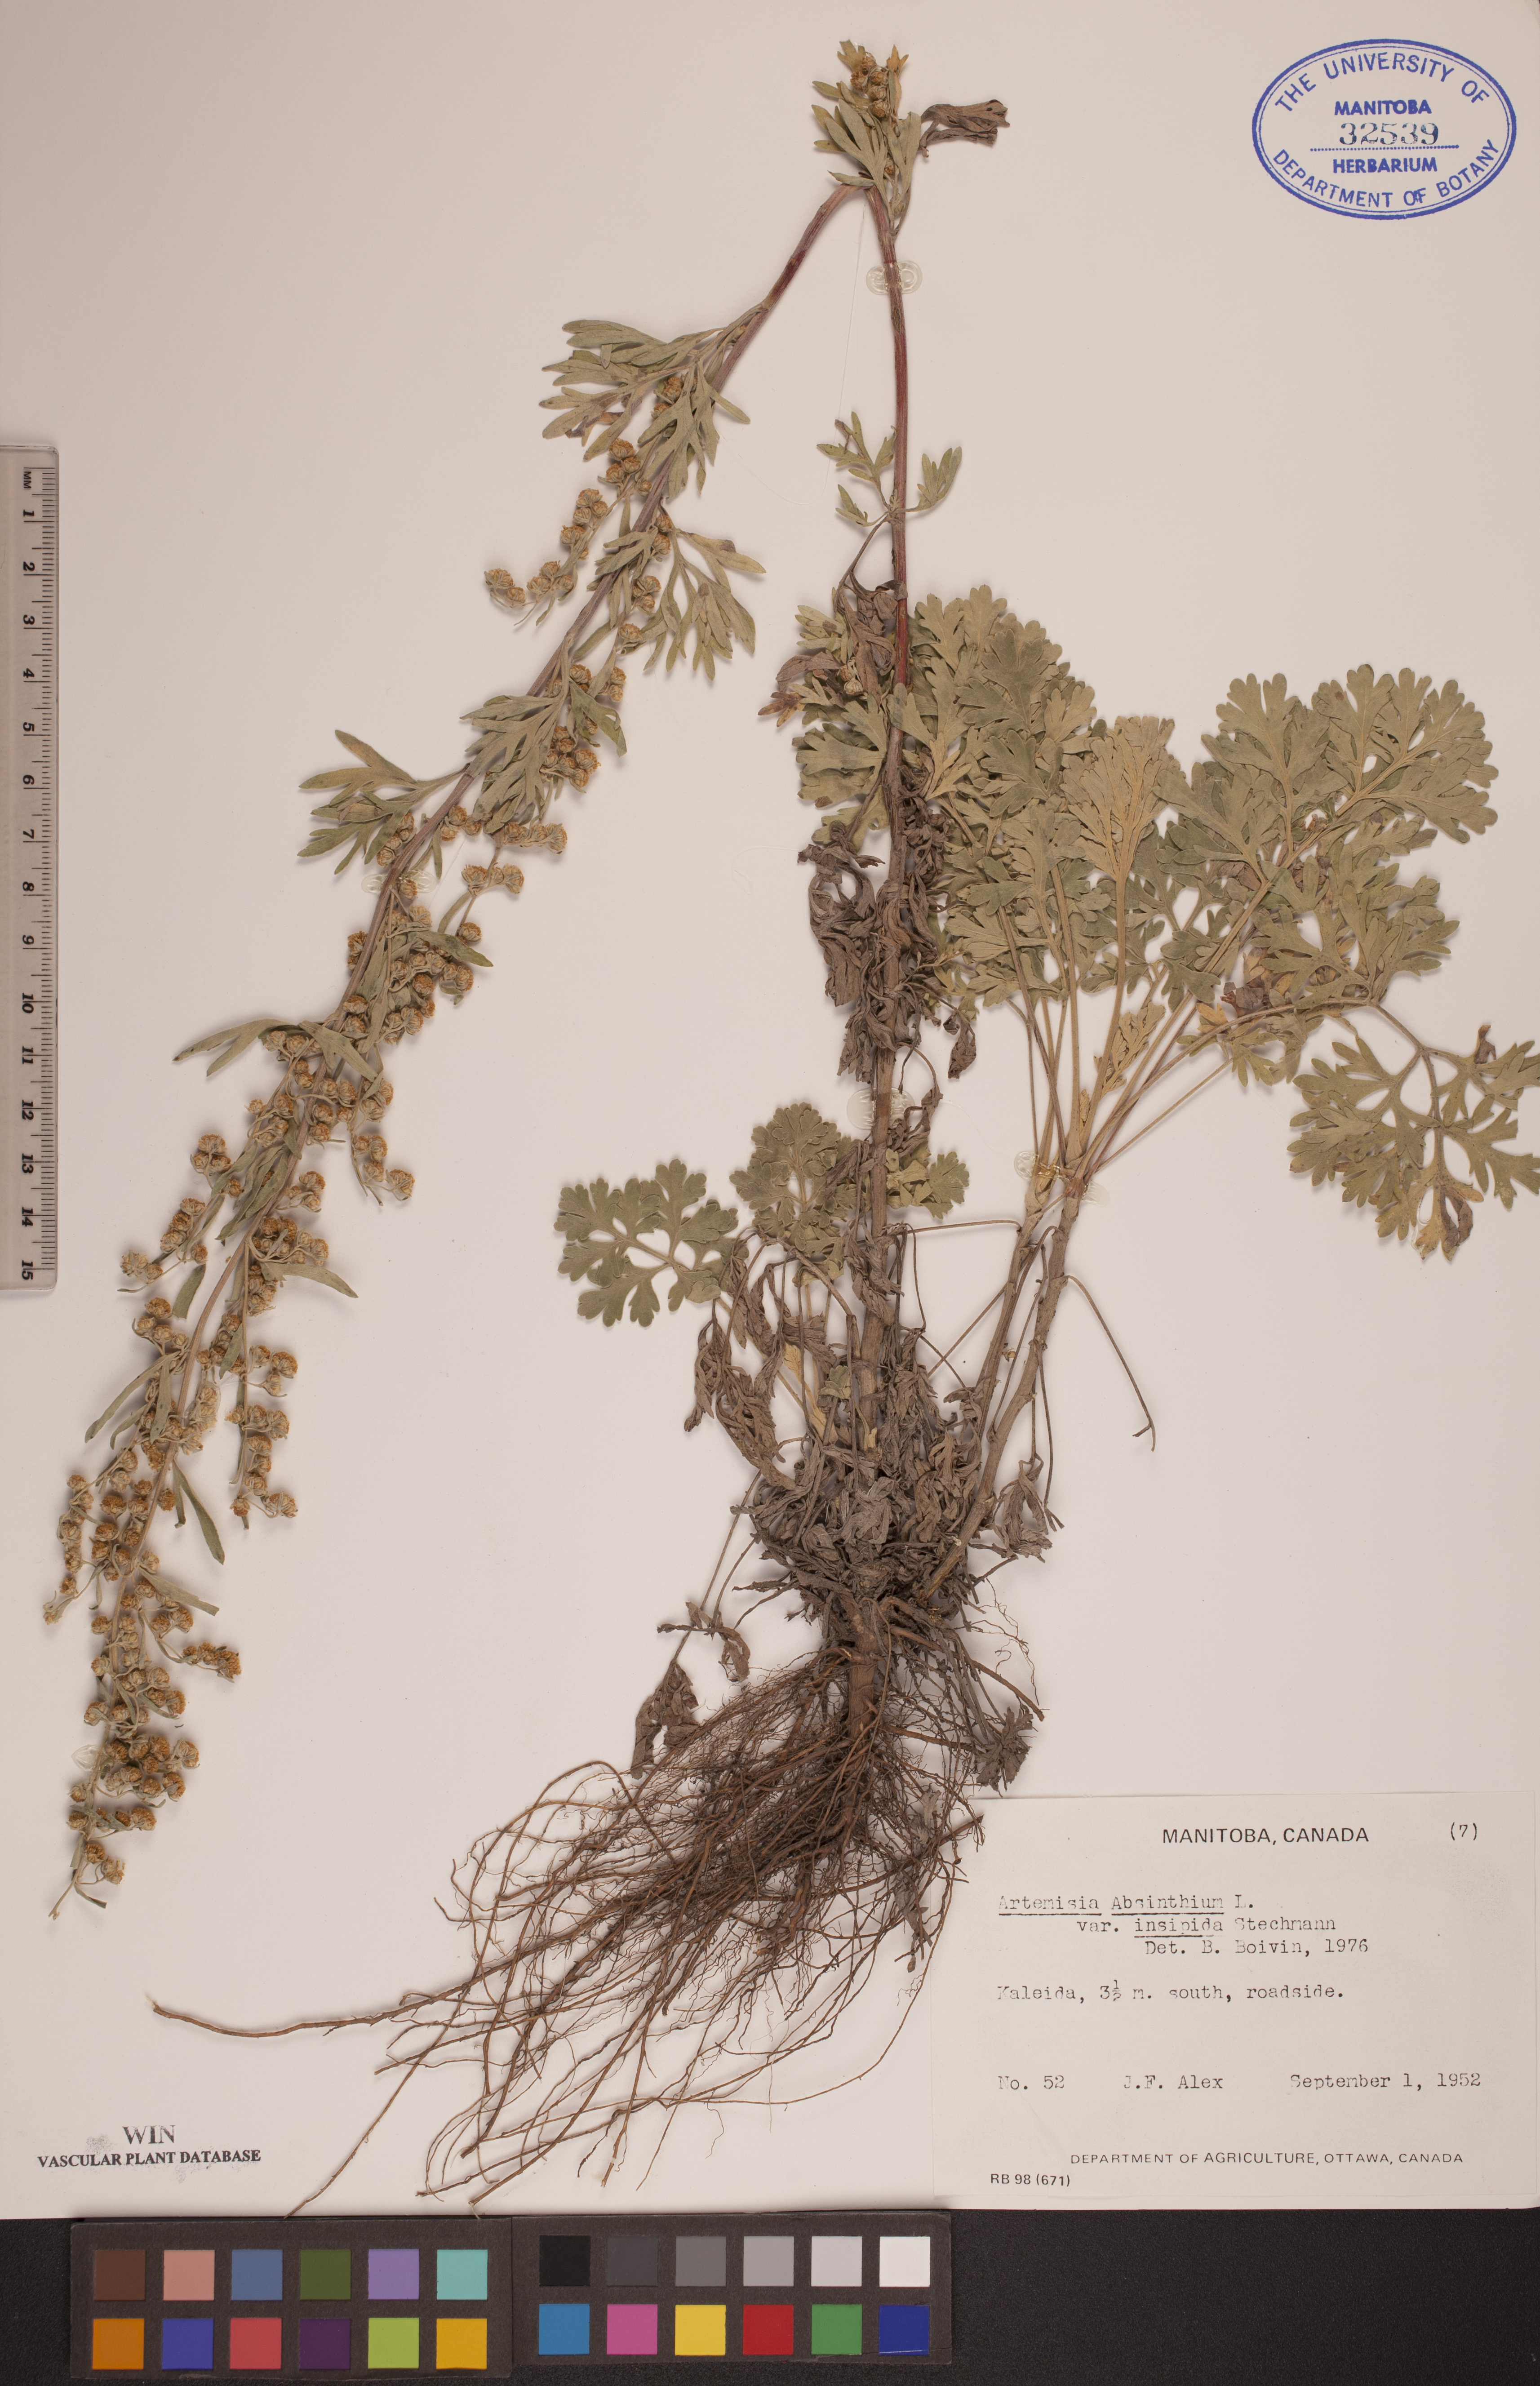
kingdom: Plantae
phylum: Tracheophyta
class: Magnoliopsida
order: Asterales
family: Asteraceae
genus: Artemisia
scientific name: Artemisia absinthium
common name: Wormwood
